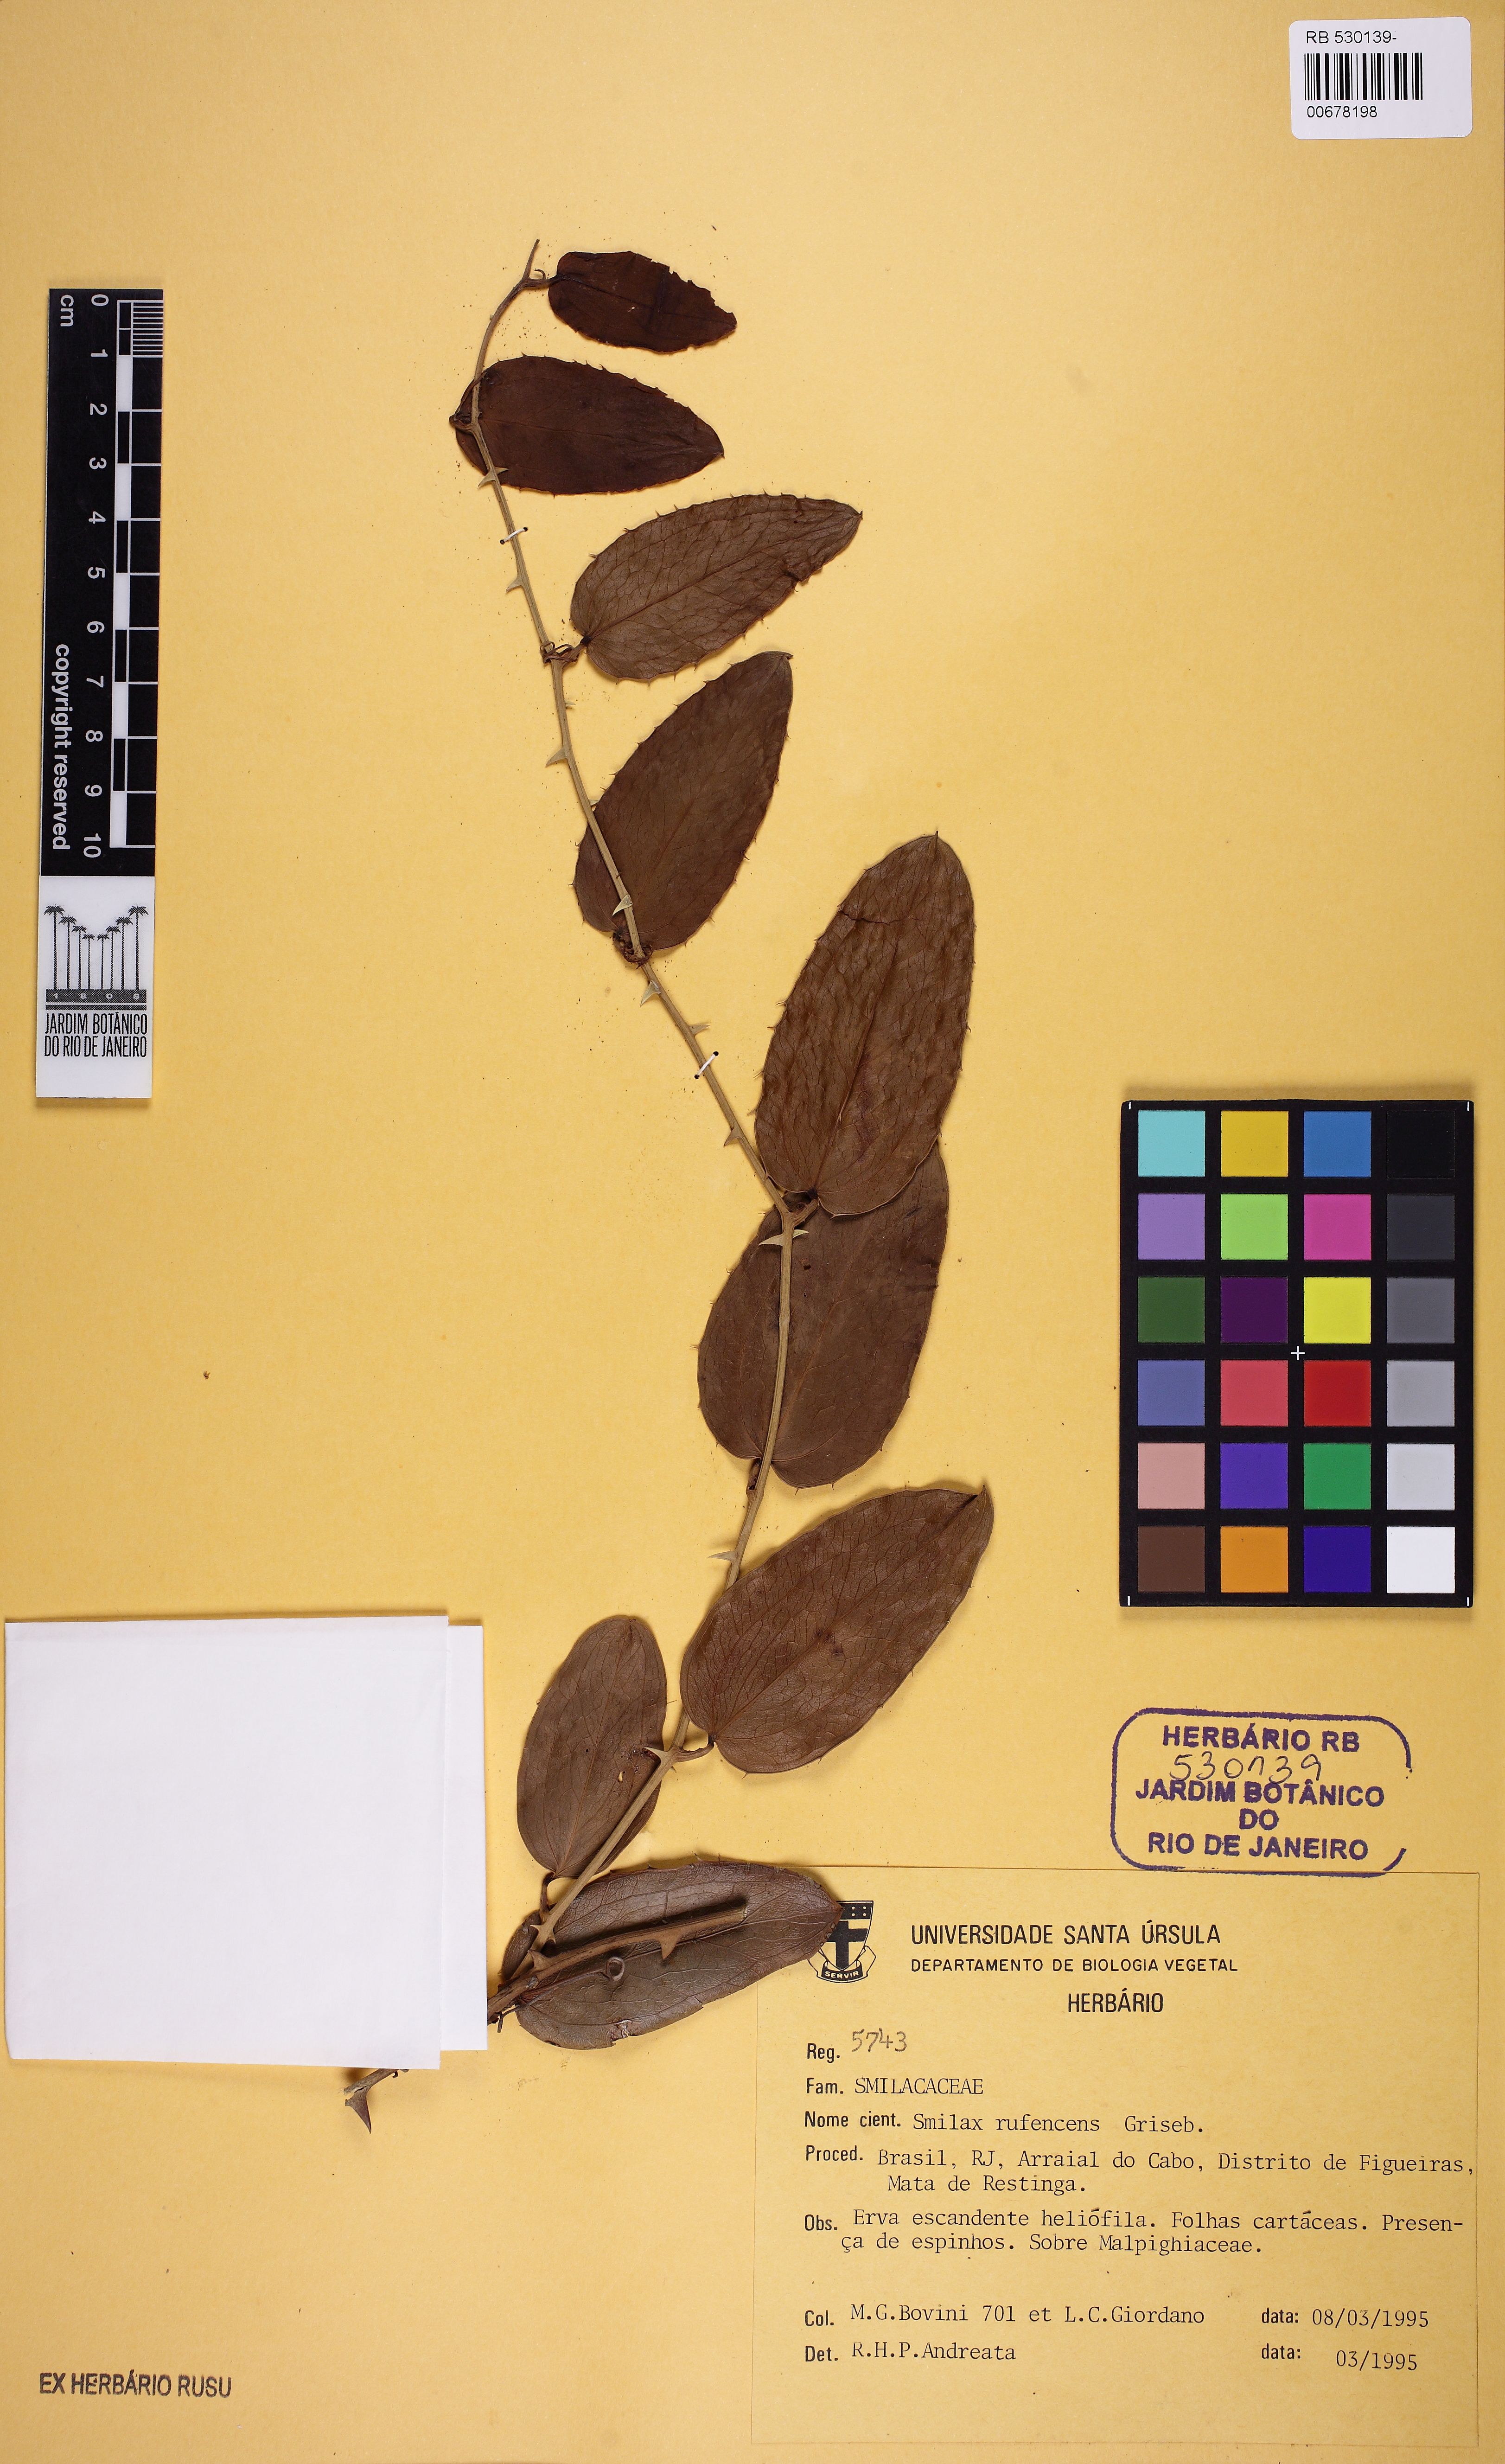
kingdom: Plantae
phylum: Tracheophyta
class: Liliopsida
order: Liliales
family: Smilacaceae
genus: Smilax
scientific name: Smilax rufescens
